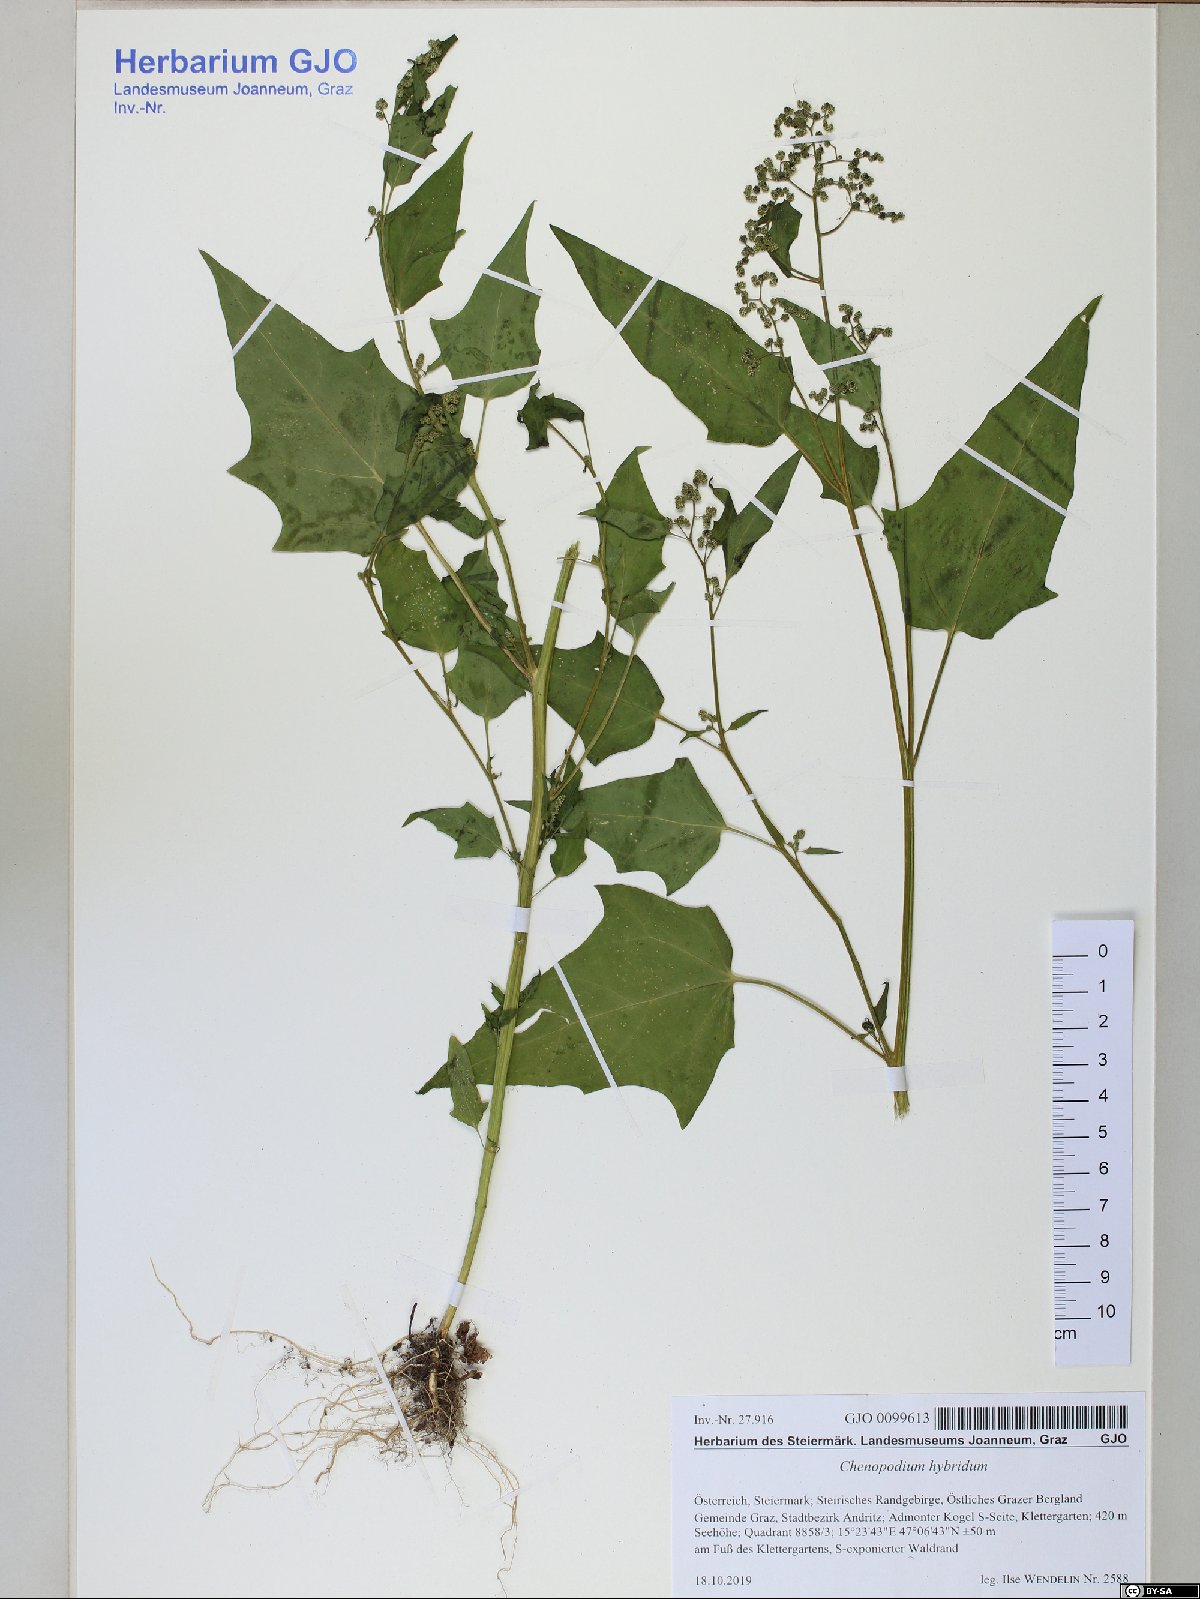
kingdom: Plantae
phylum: Tracheophyta
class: Magnoliopsida
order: Caryophyllales
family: Amaranthaceae
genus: Chenopodiastrum
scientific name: Chenopodiastrum hybridum
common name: Mapleleaf goosefoot
